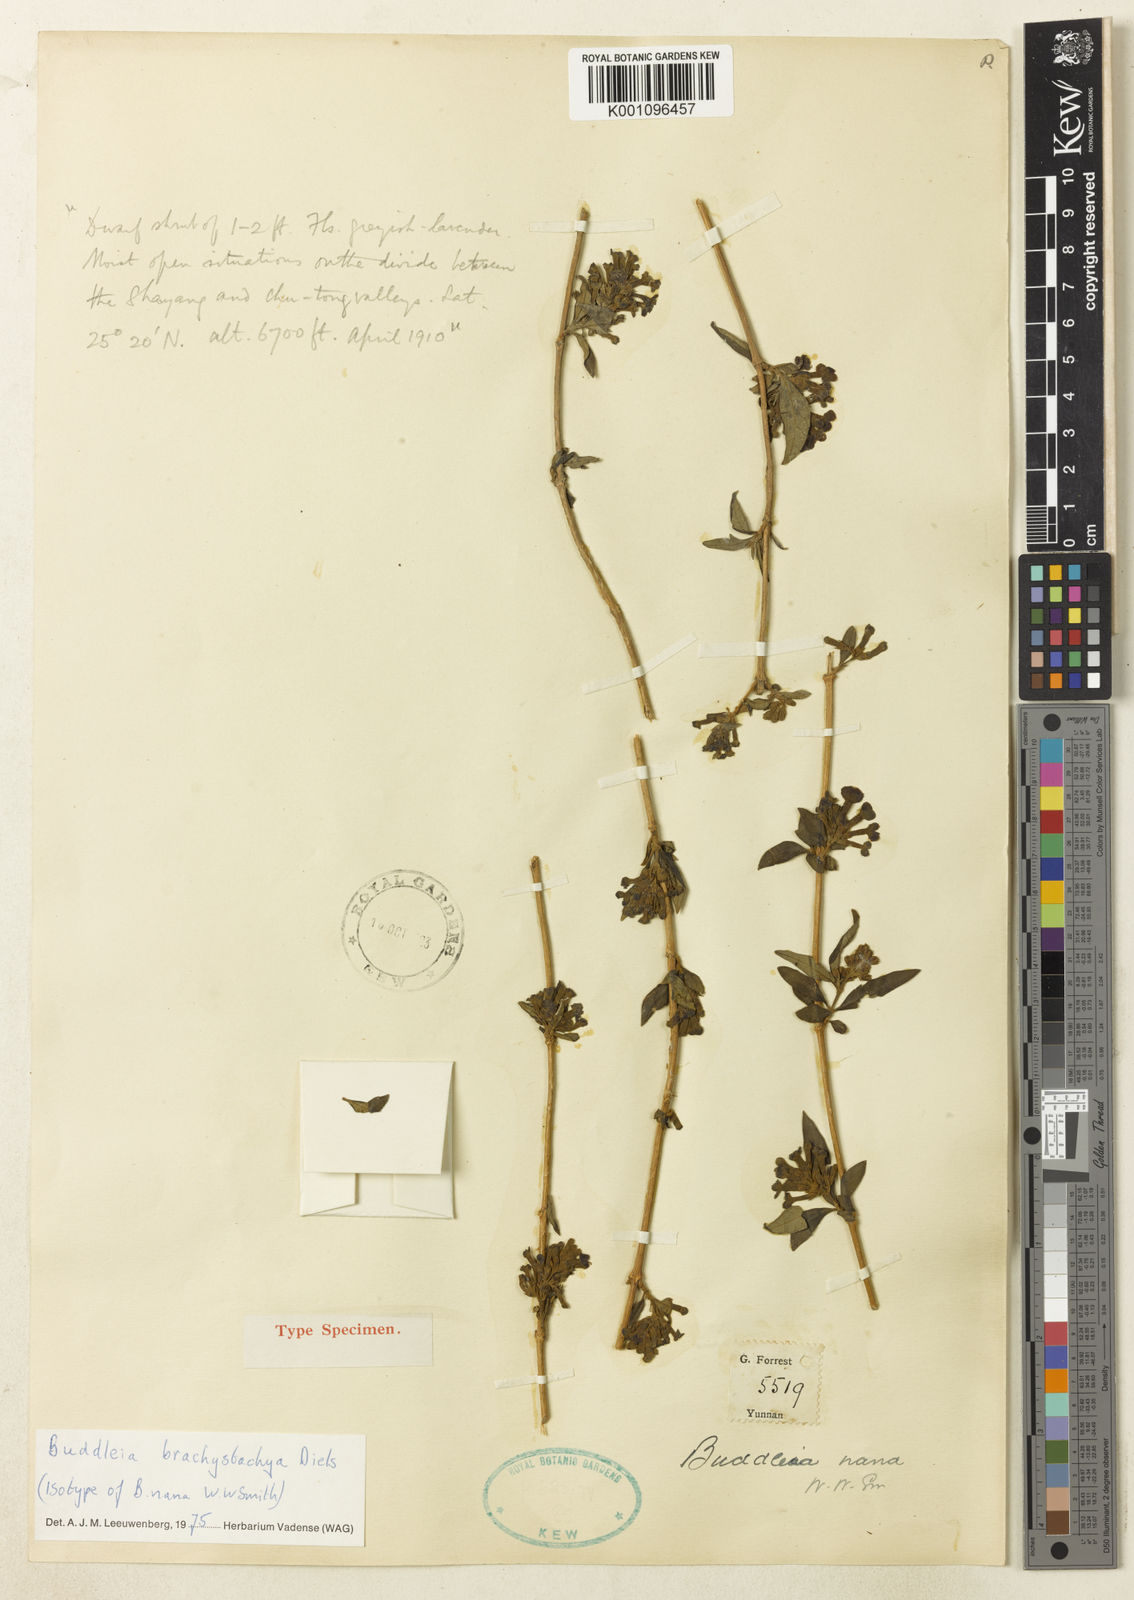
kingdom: Plantae
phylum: Tracheophyta
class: Magnoliopsida
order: Lamiales
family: Scrophulariaceae
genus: Buddleja
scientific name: Buddleja brachystachya
